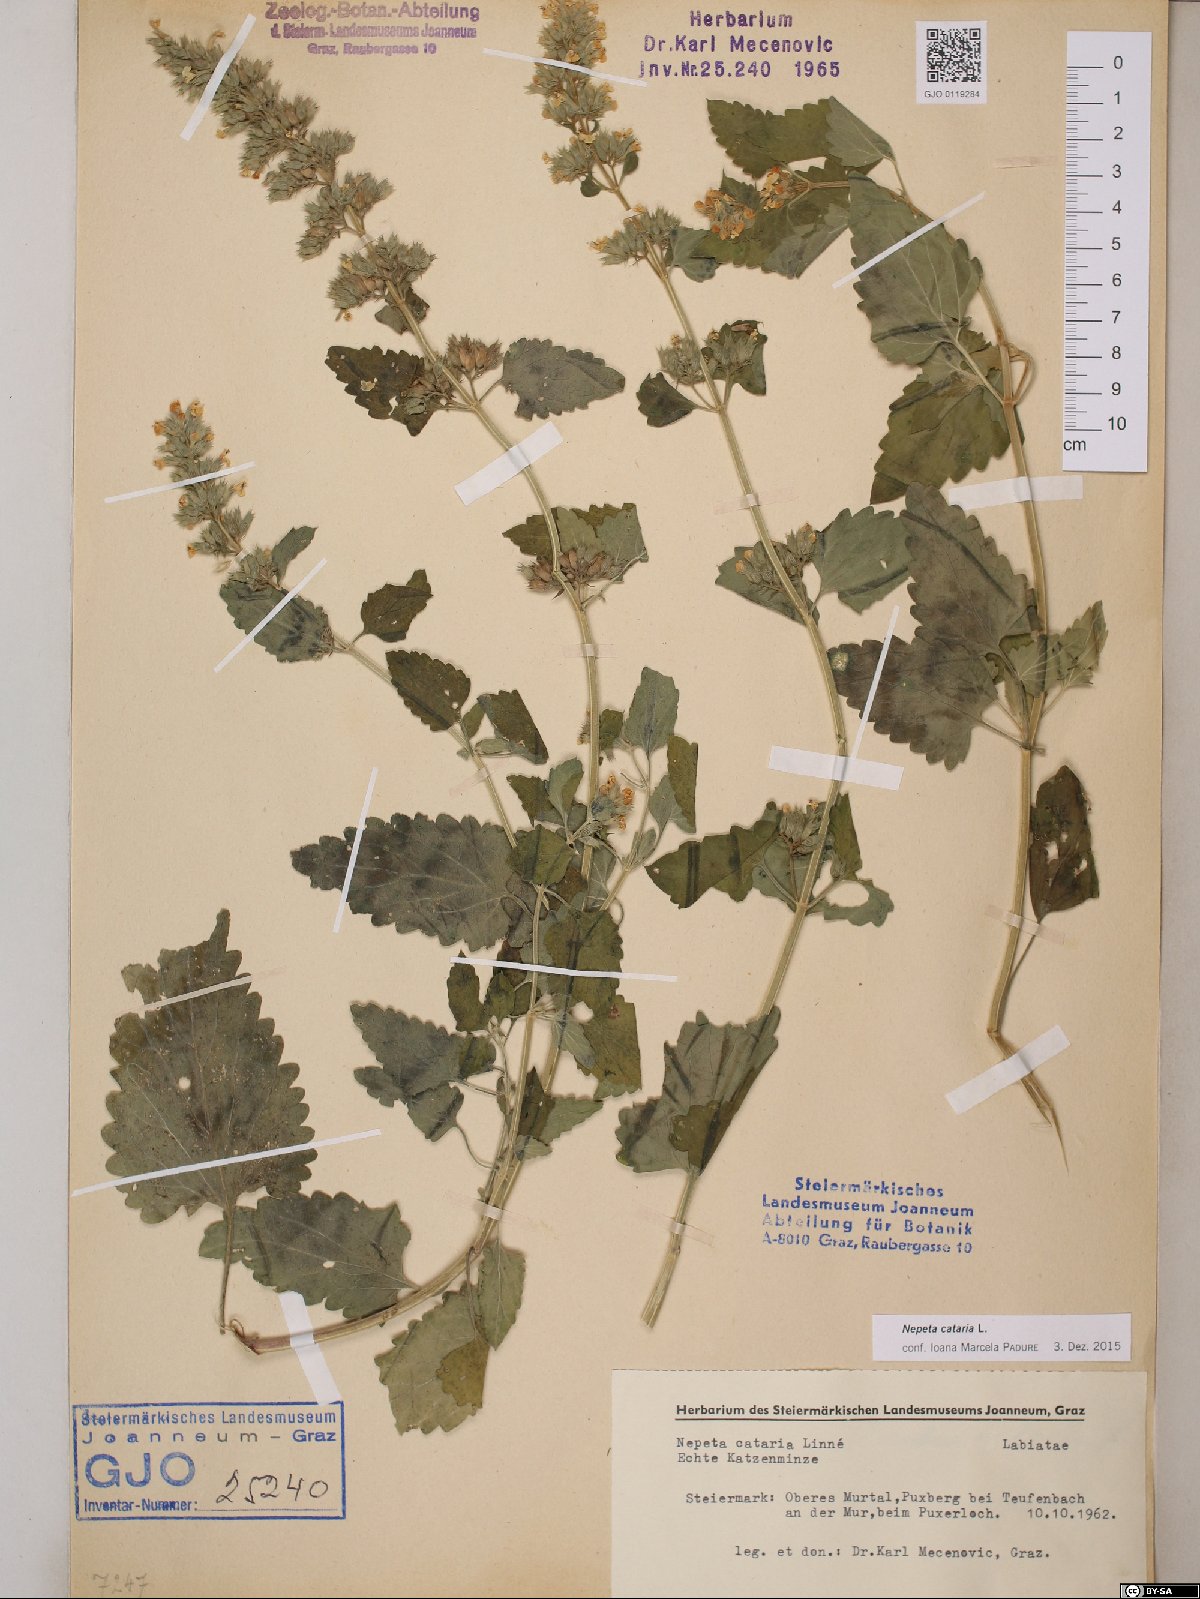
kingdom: Plantae
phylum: Tracheophyta
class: Magnoliopsida
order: Lamiales
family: Lamiaceae
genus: Nepeta
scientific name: Nepeta cataria
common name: Catnip
